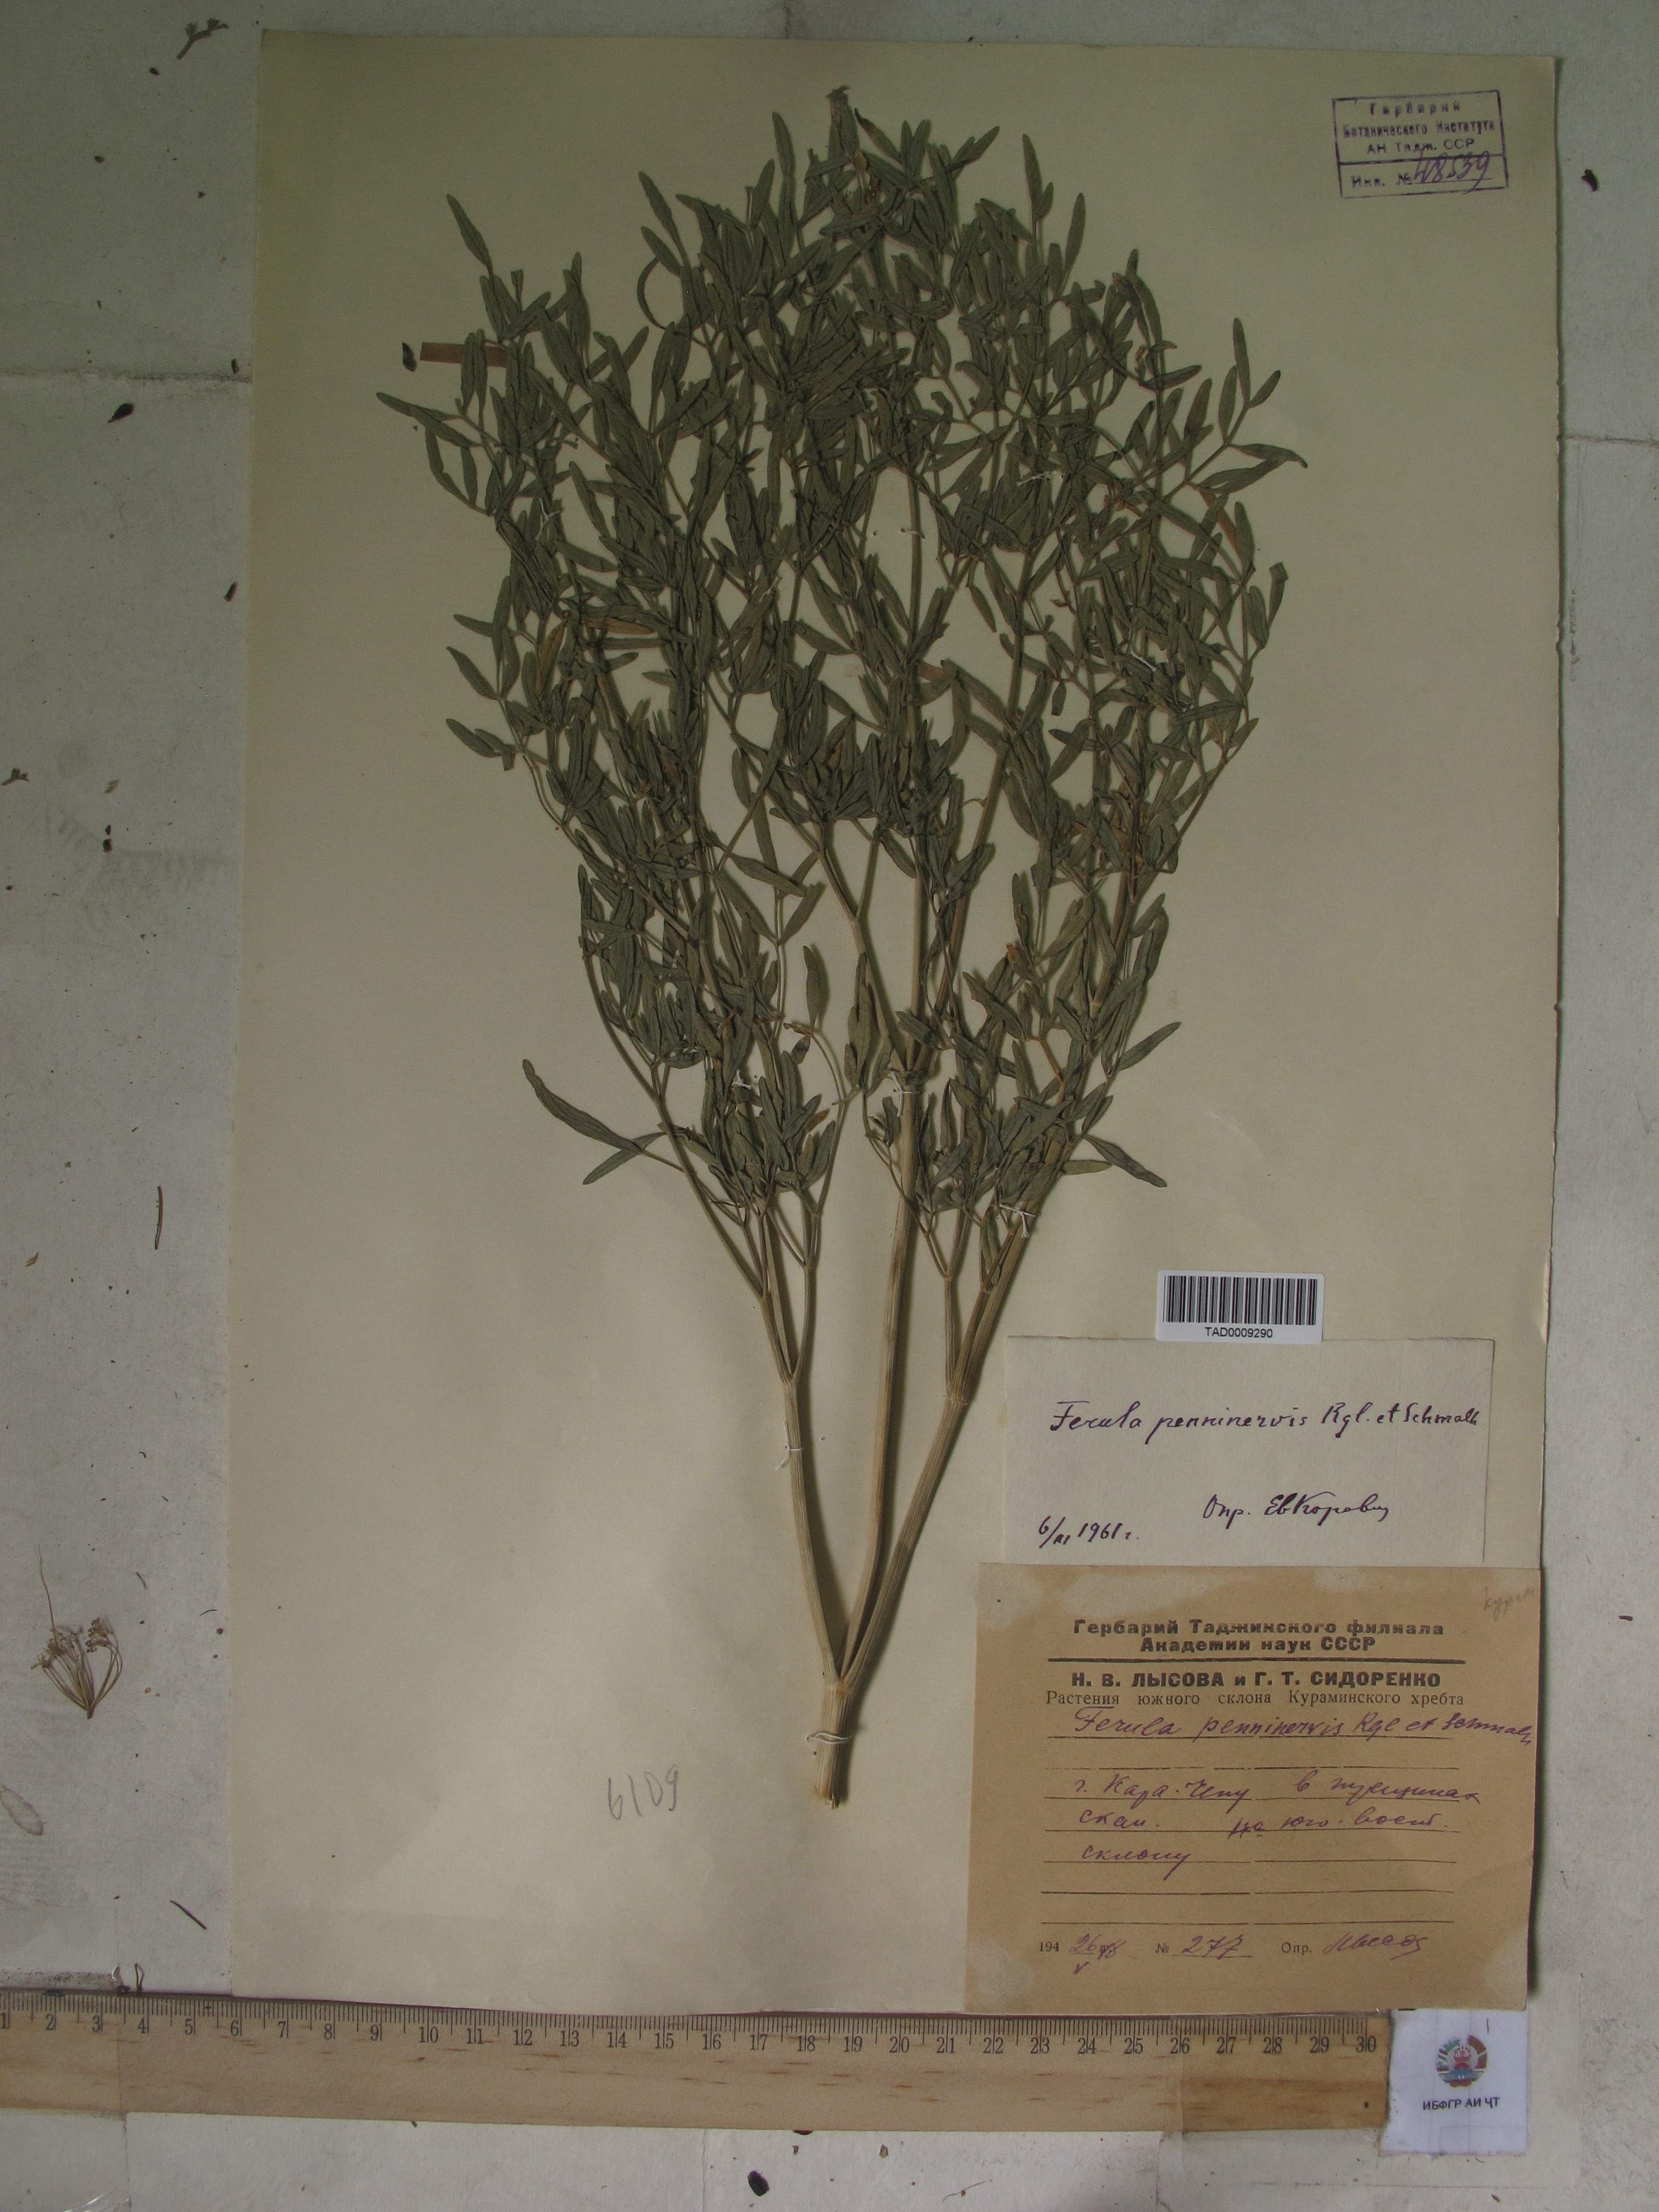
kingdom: Plantae
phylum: Tracheophyta
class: Magnoliopsida
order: Apiales
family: Apiaceae
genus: Ferula
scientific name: Ferula
